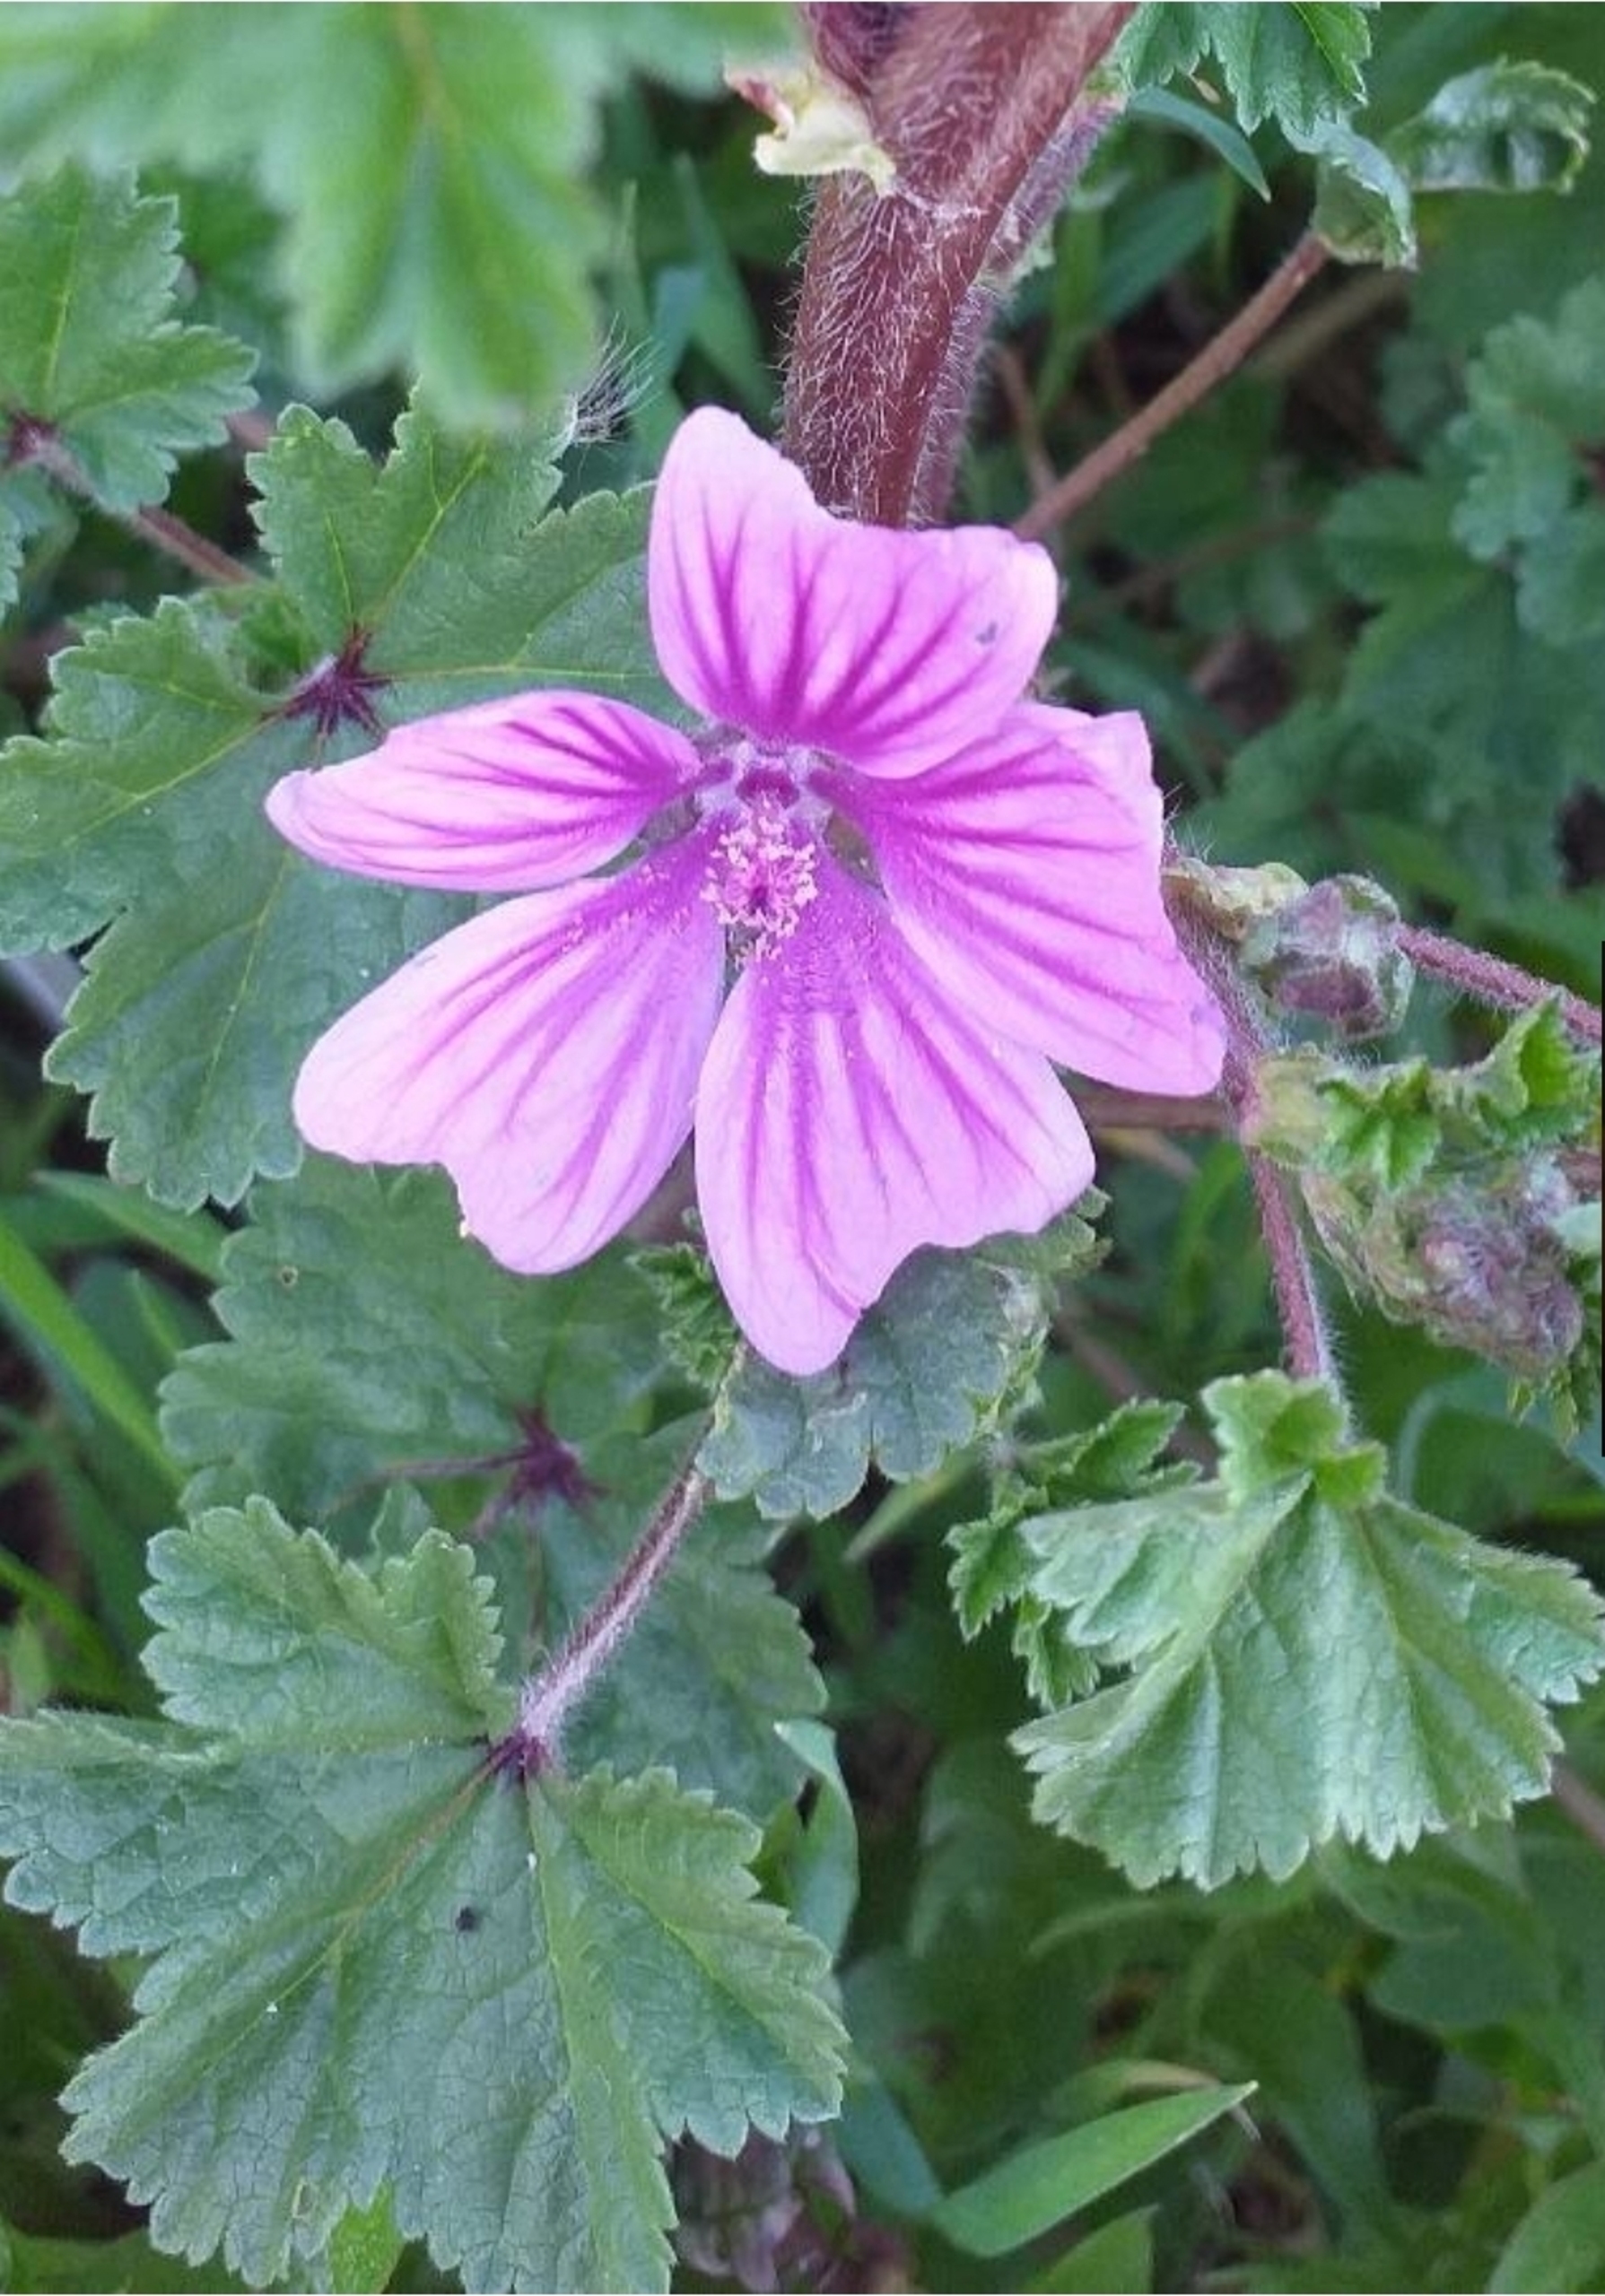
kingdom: Plantae
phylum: Tracheophyta
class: Magnoliopsida
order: Malvales
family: Malvaceae
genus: Malva
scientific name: Malva sylvestris
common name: Almindelig katost
